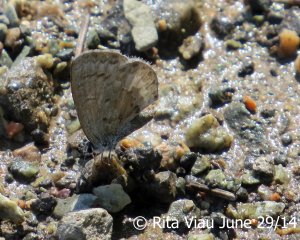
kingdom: Animalia
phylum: Arthropoda
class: Insecta
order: Lepidoptera
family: Lycaenidae
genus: Celastrina
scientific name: Celastrina serotina
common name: Cherry Gall Azure
